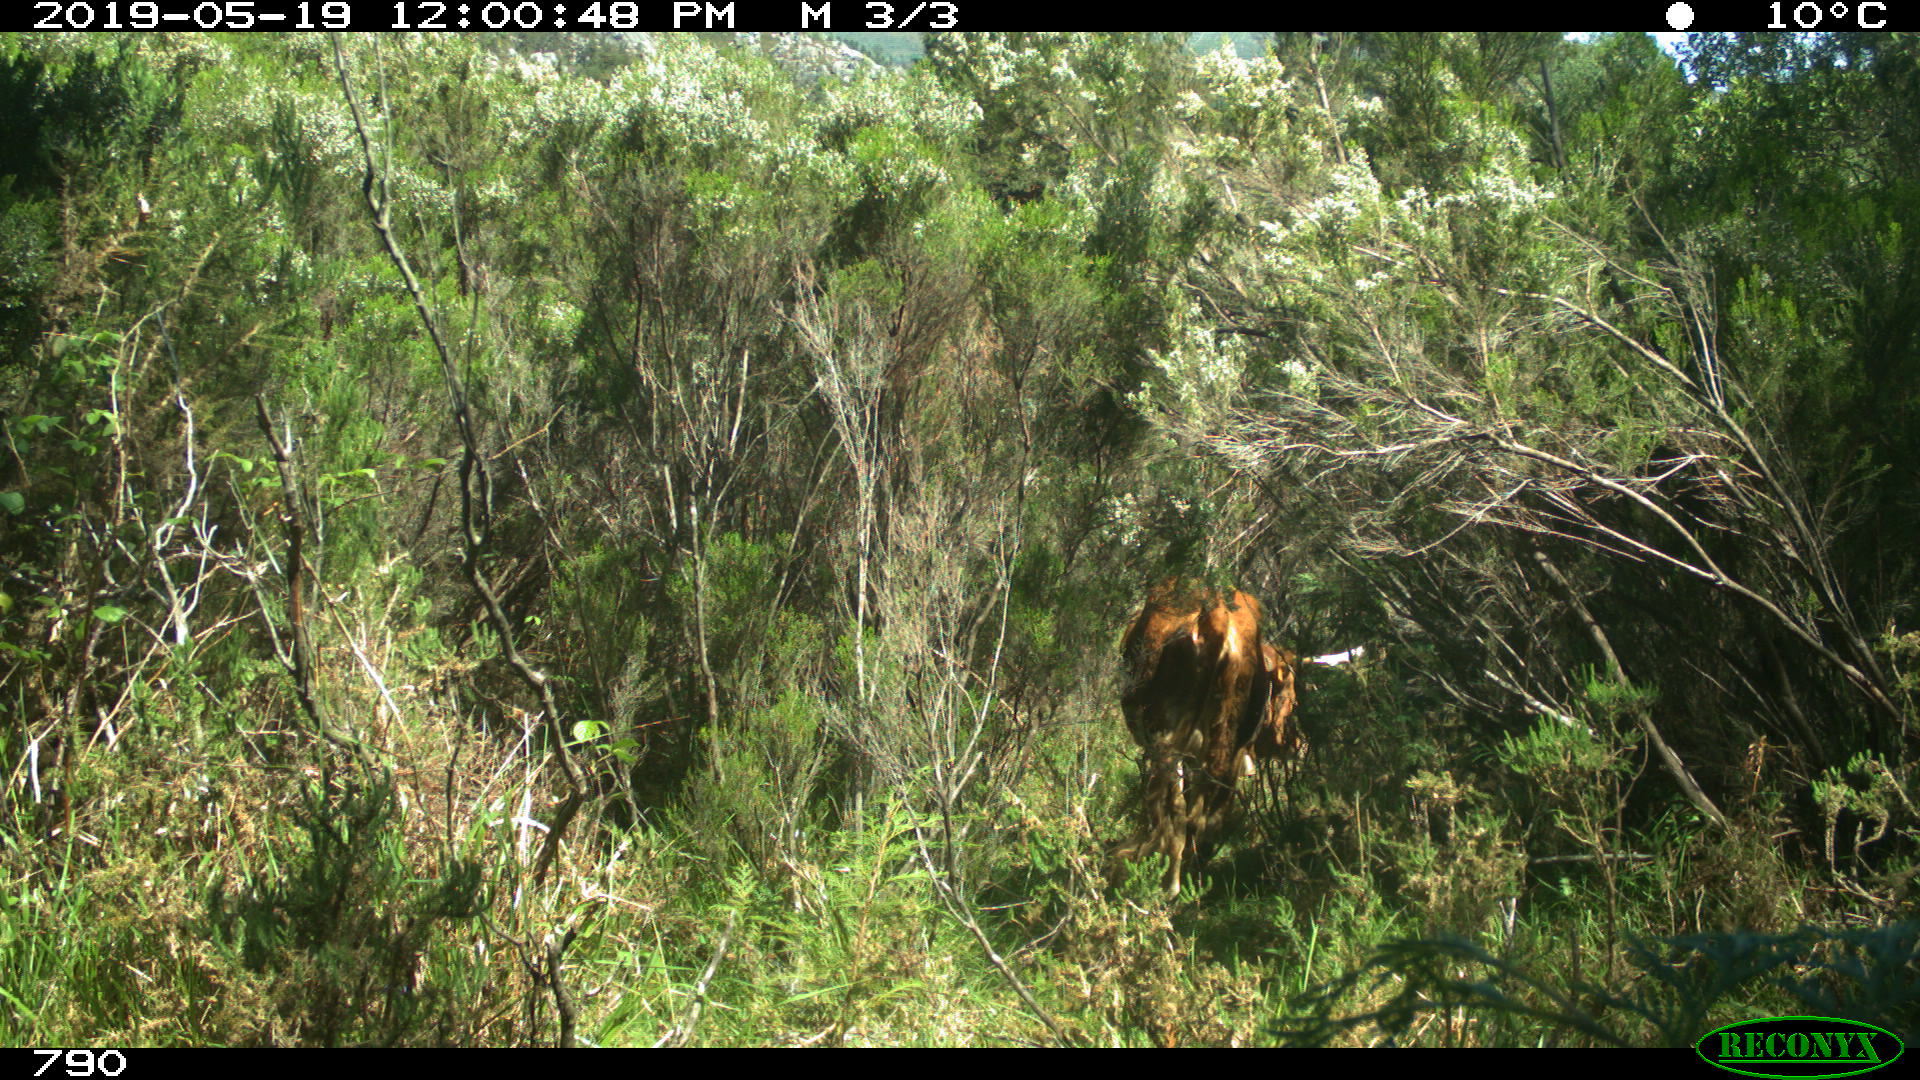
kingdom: Animalia
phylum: Chordata
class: Mammalia
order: Artiodactyla
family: Bovidae
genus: Bos
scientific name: Bos taurus
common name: Domesticated cattle
